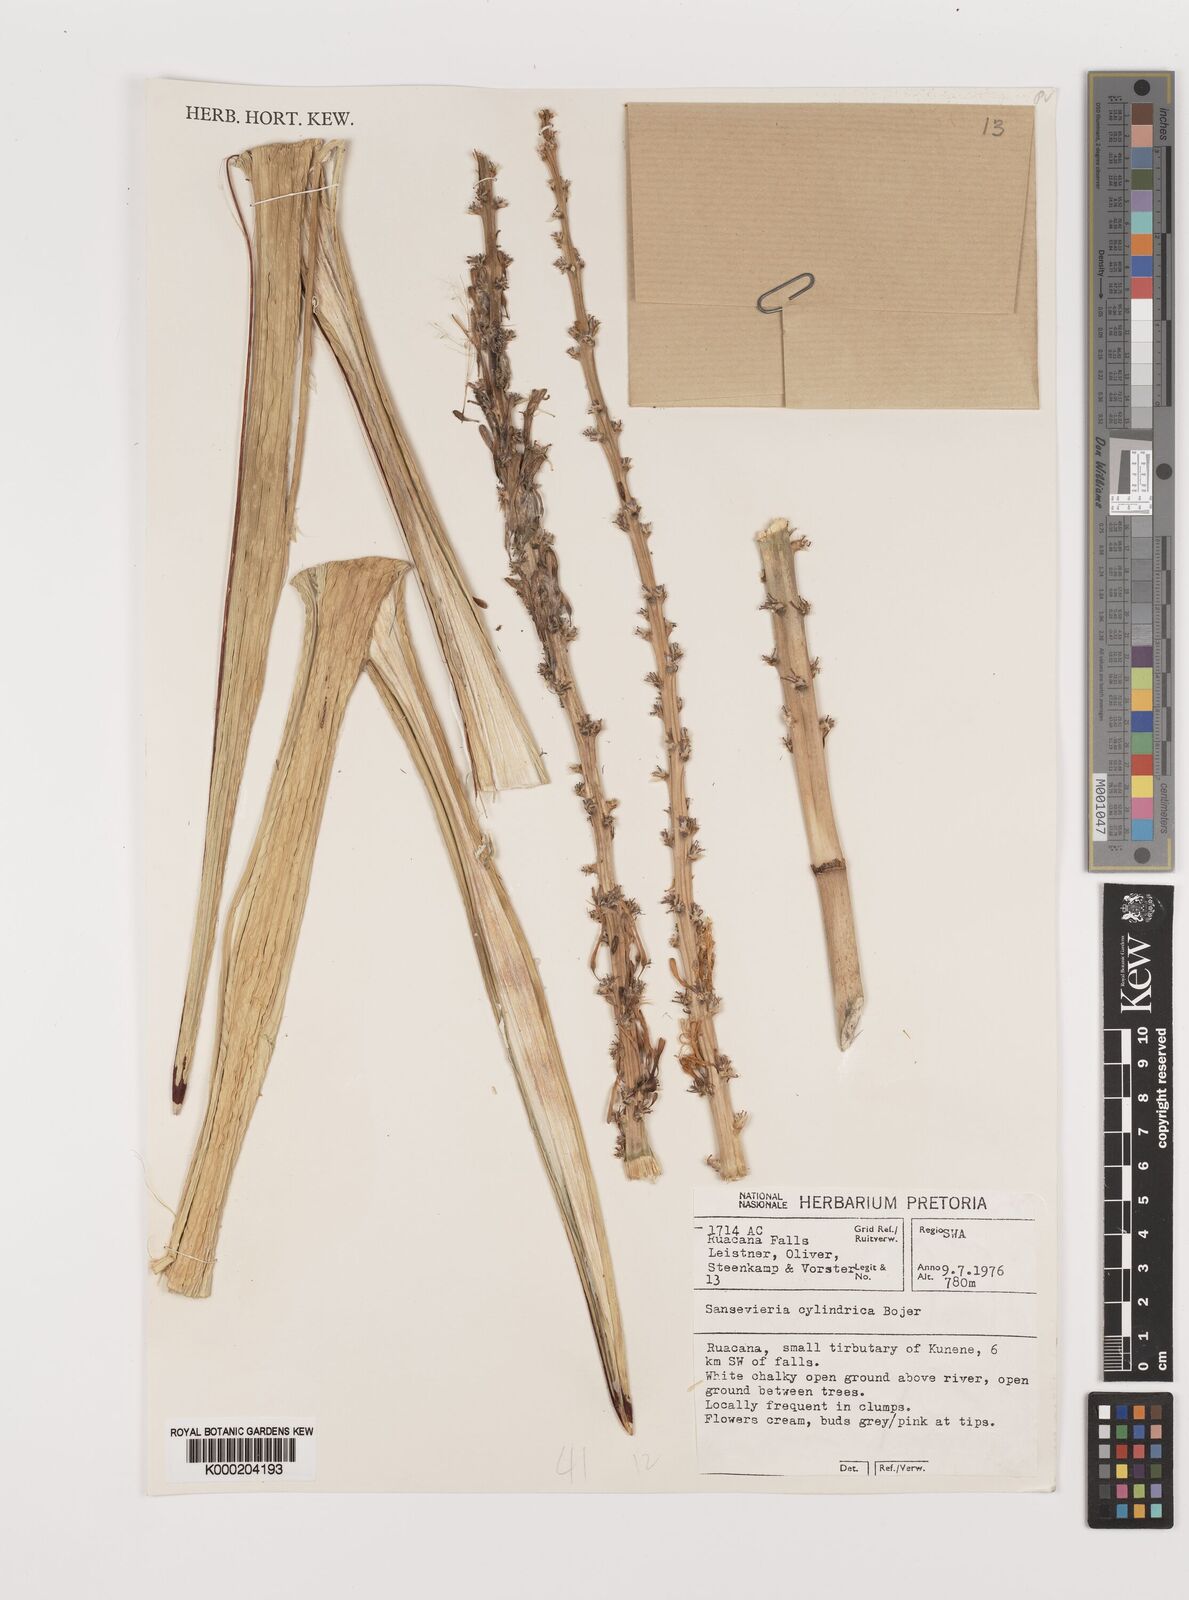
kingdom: Plantae
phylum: Tracheophyta
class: Liliopsida
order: Asparagales
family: Asparagaceae
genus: Dracaena
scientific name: Dracaena angolensis
